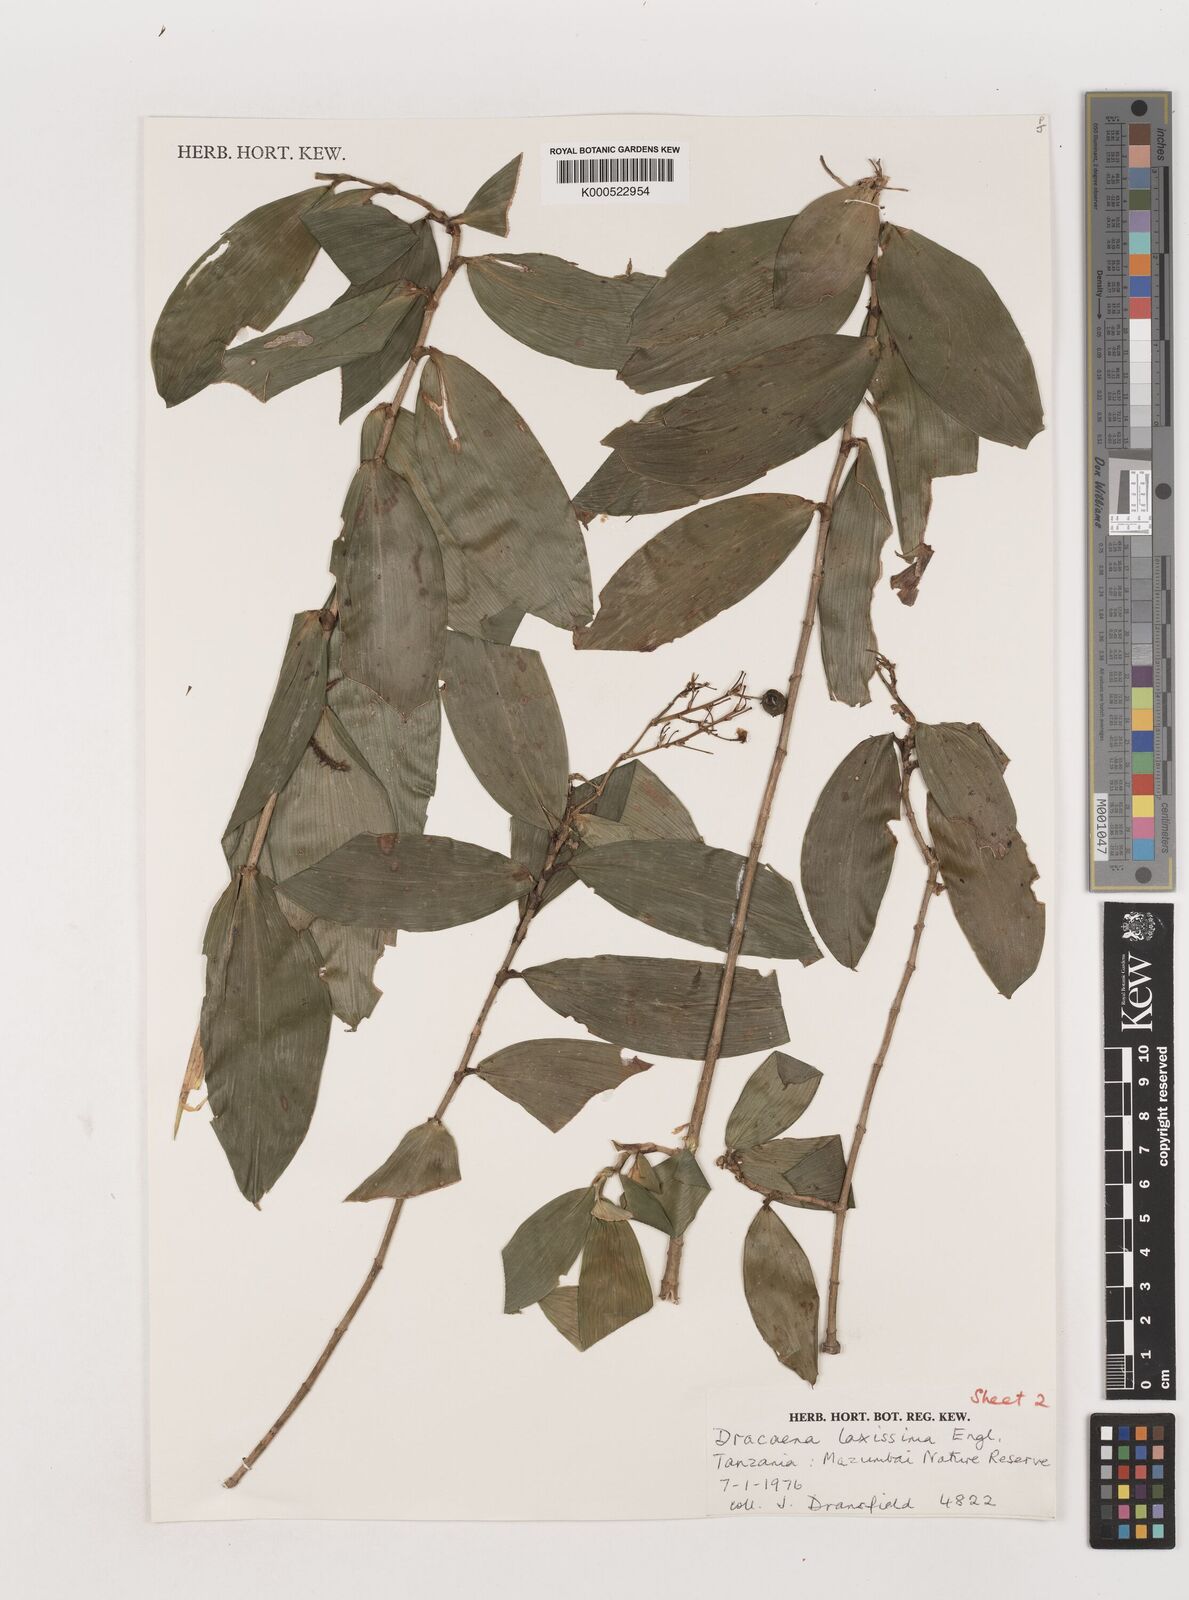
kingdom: Plantae
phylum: Tracheophyta
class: Liliopsida
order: Asparagales
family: Asparagaceae
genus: Dracaena
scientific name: Dracaena laxissima
